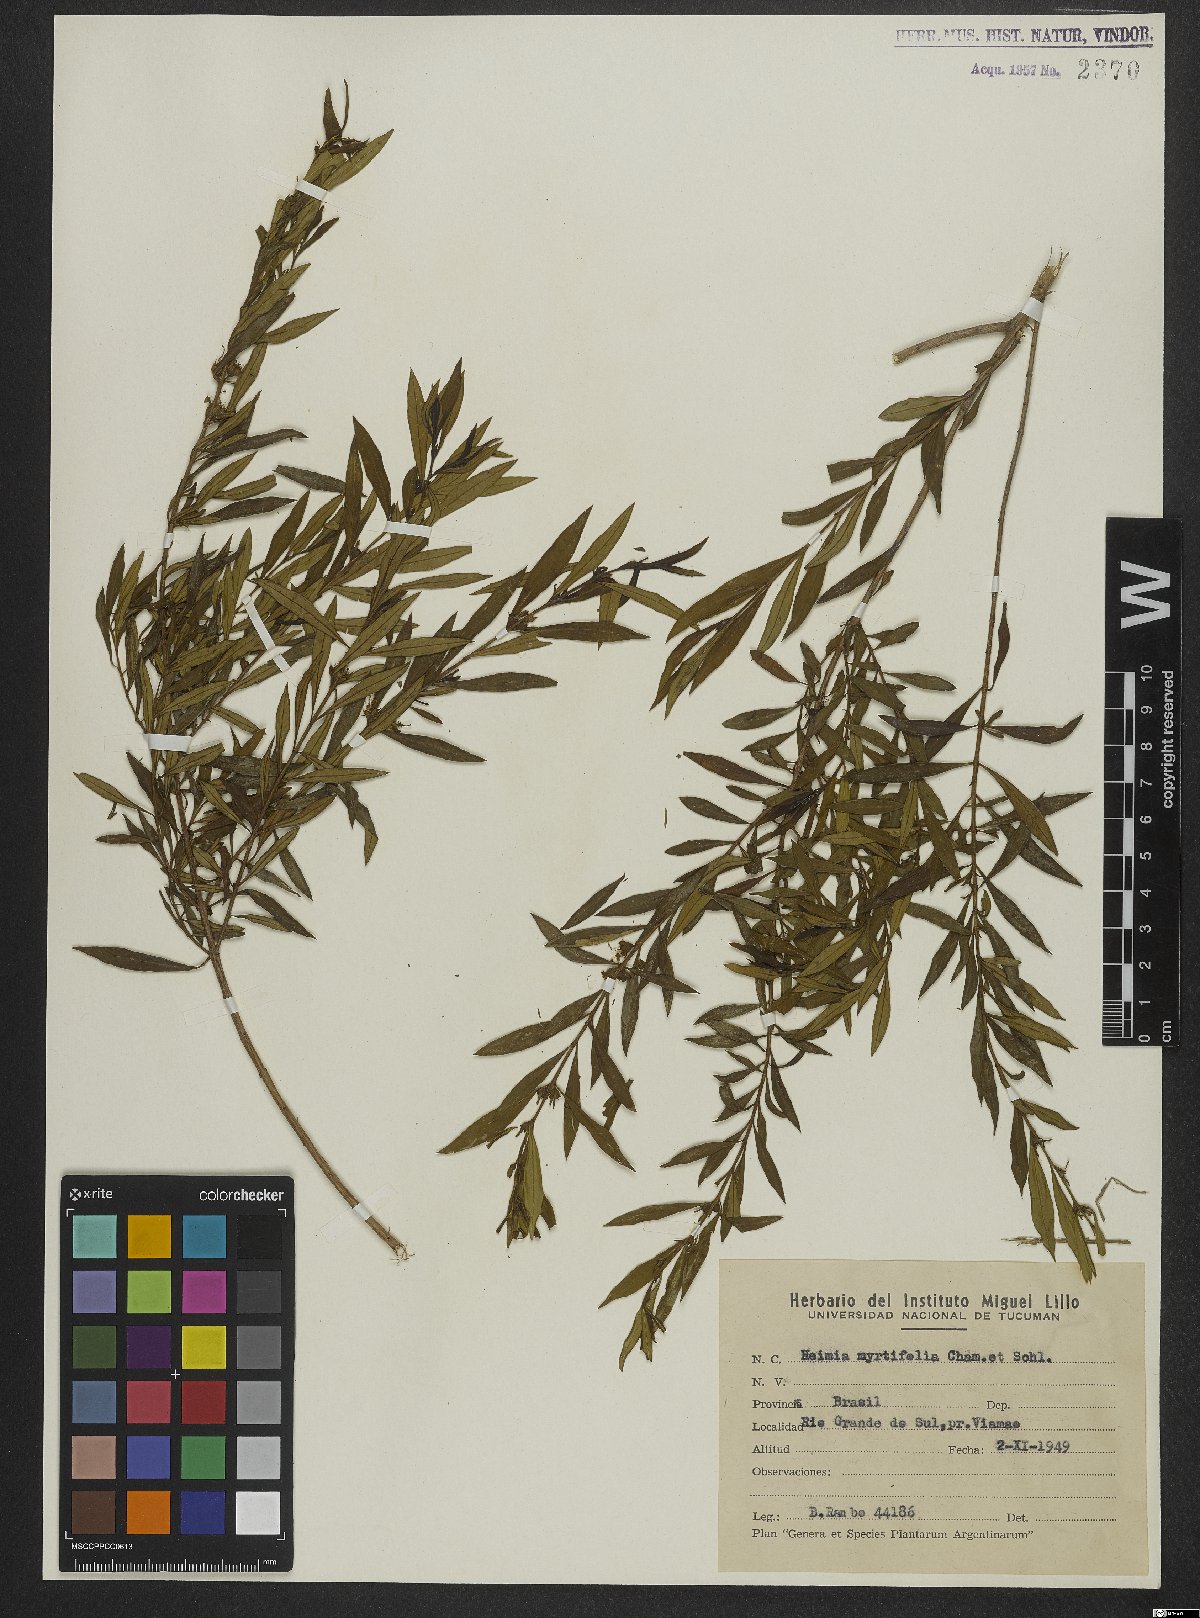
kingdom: Plantae
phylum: Tracheophyta
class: Magnoliopsida
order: Myrtales
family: Lythraceae
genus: Heimia
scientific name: Heimia apetala
